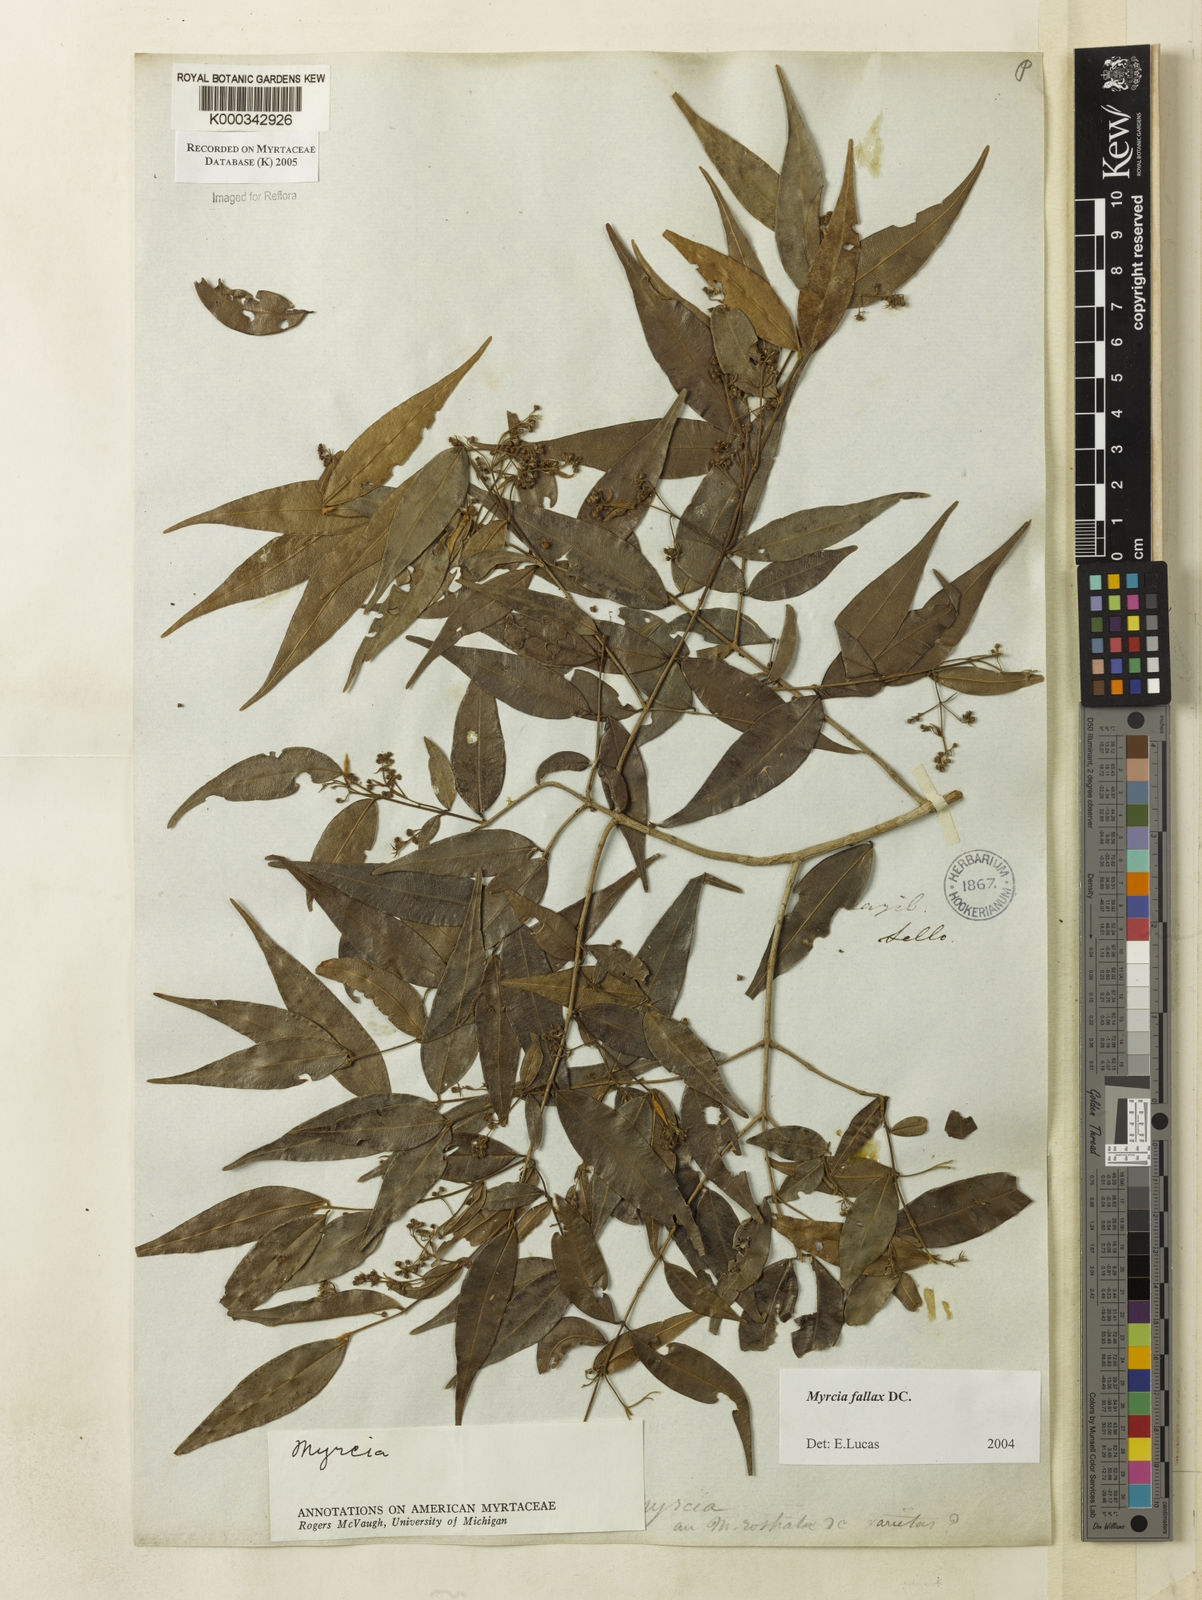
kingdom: Plantae
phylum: Tracheophyta
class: Magnoliopsida
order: Myrtales
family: Myrtaceae
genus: Myrcia
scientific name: Myrcia splendens
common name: Surinam cherry
